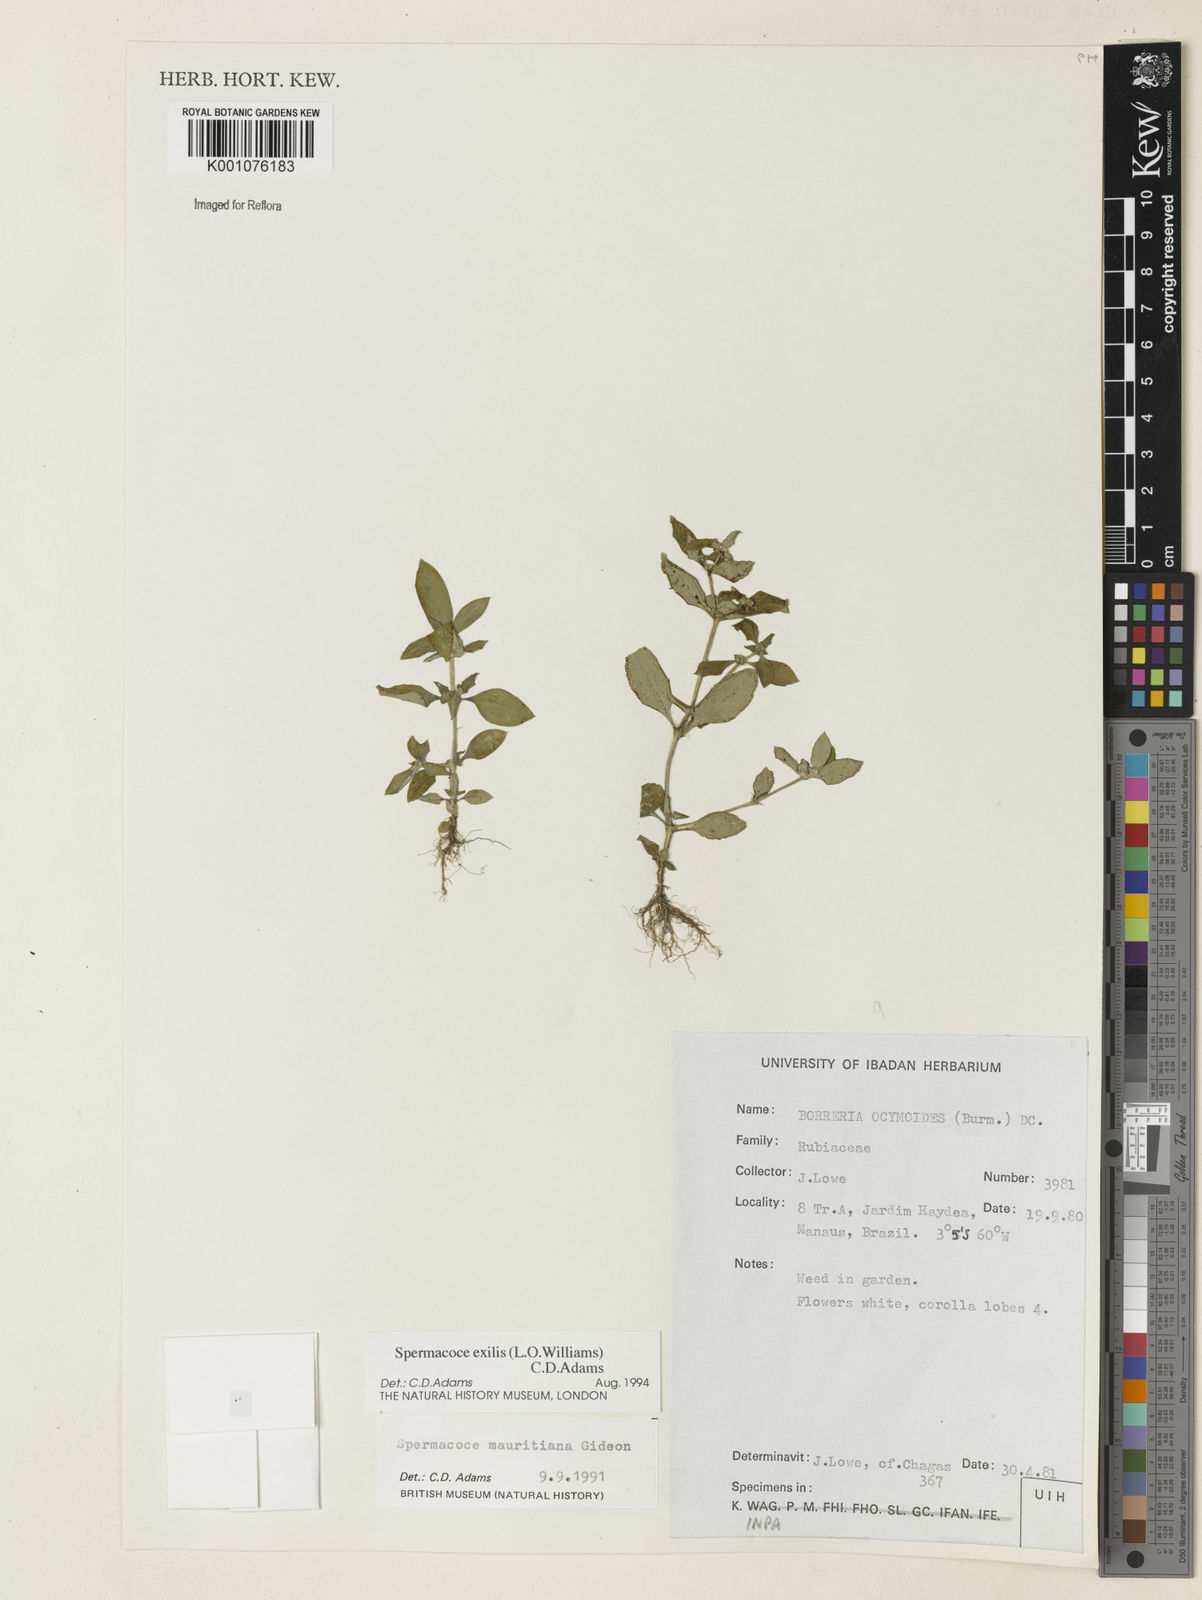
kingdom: Plantae
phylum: Tracheophyta
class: Magnoliopsida
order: Gentianales
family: Rubiaceae
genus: Spermacoce
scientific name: Spermacoce exilis
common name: Pacific false buttonweed
